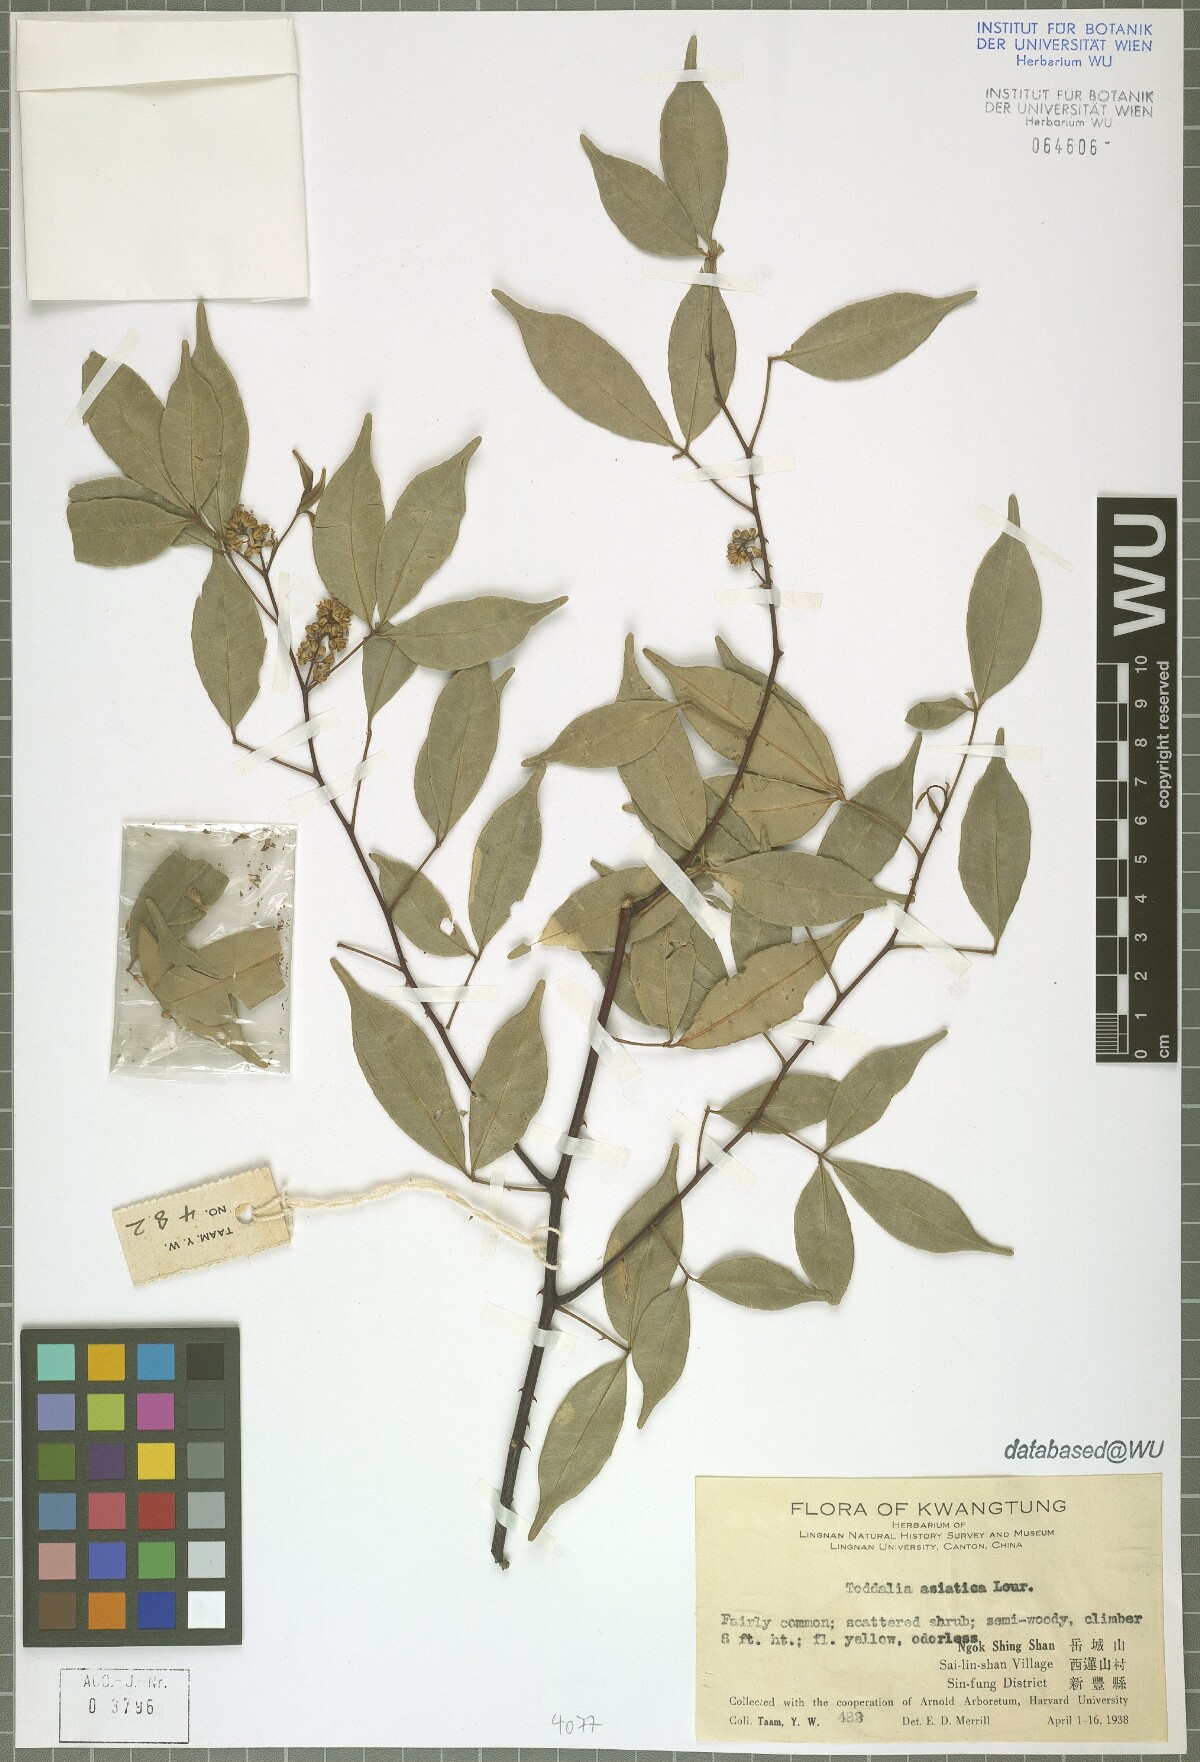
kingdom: Plantae
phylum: Tracheophyta
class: Magnoliopsida
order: Sapindales
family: Rutaceae
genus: Zanthoxylum
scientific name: Zanthoxylum asiaticum
